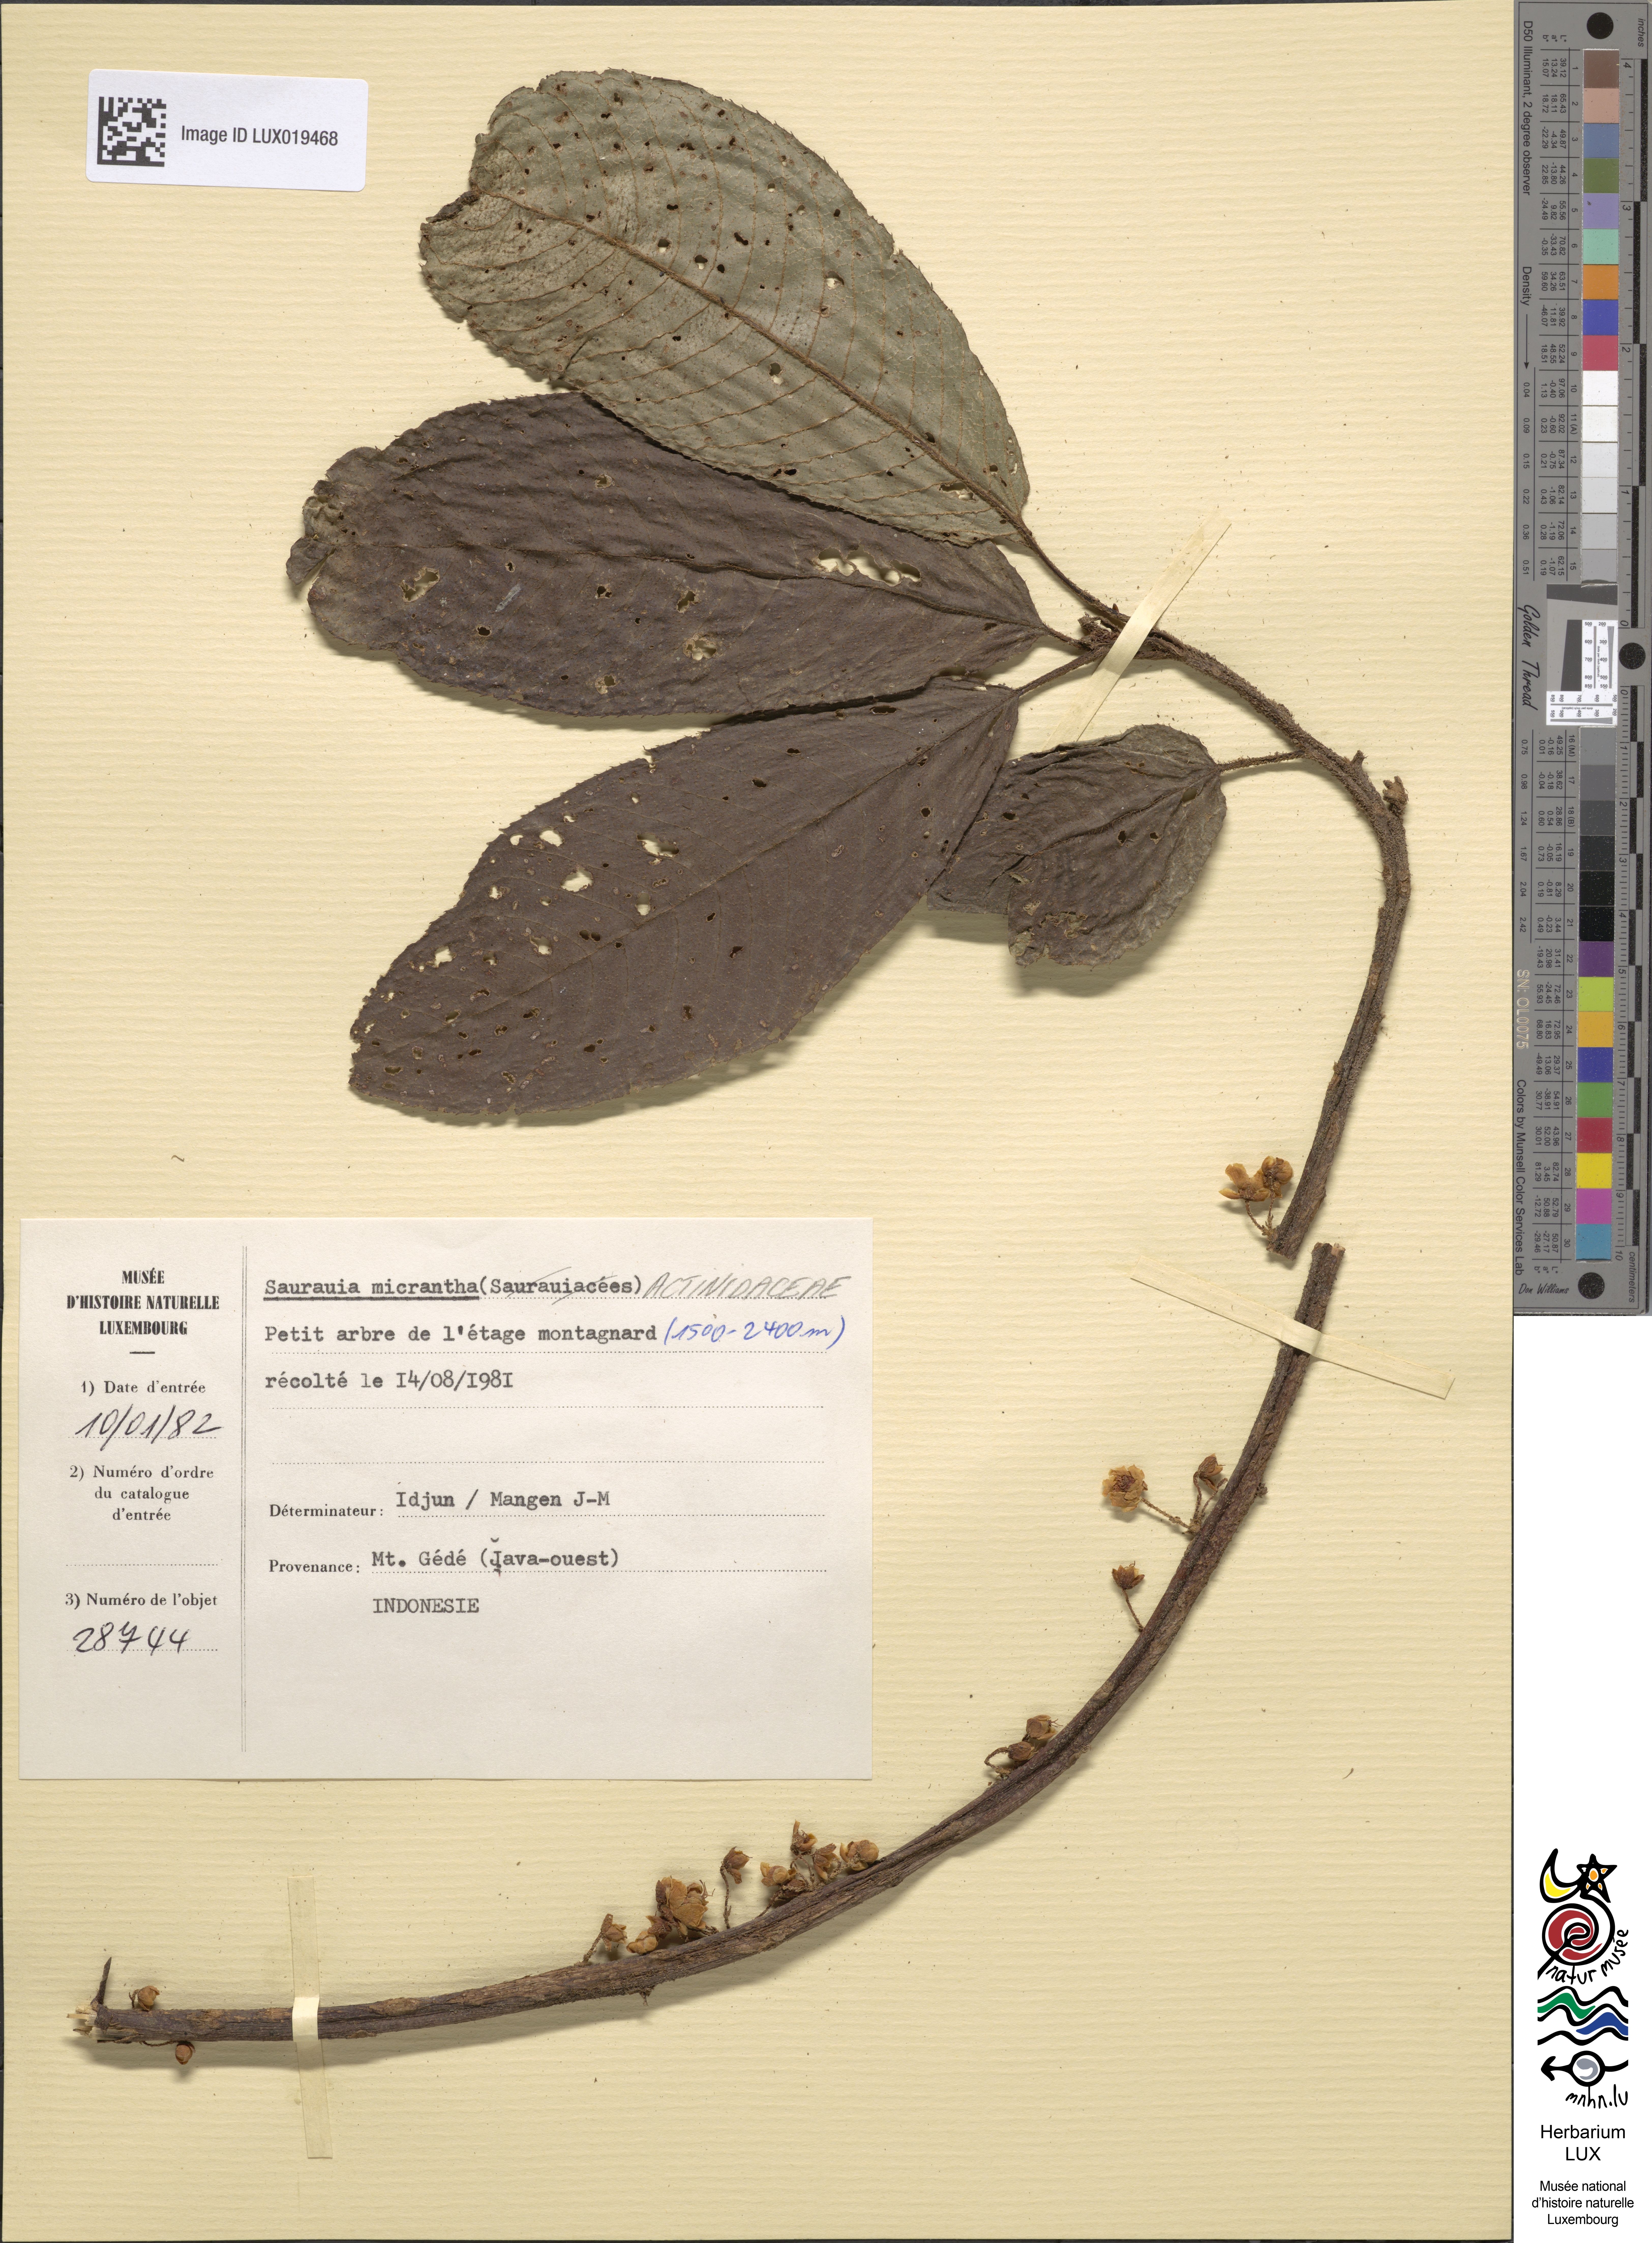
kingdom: Plantae
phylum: Tracheophyta
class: Magnoliopsida
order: Ericales
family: Actinidiaceae
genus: Saurauia
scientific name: Saurauia micrantha
